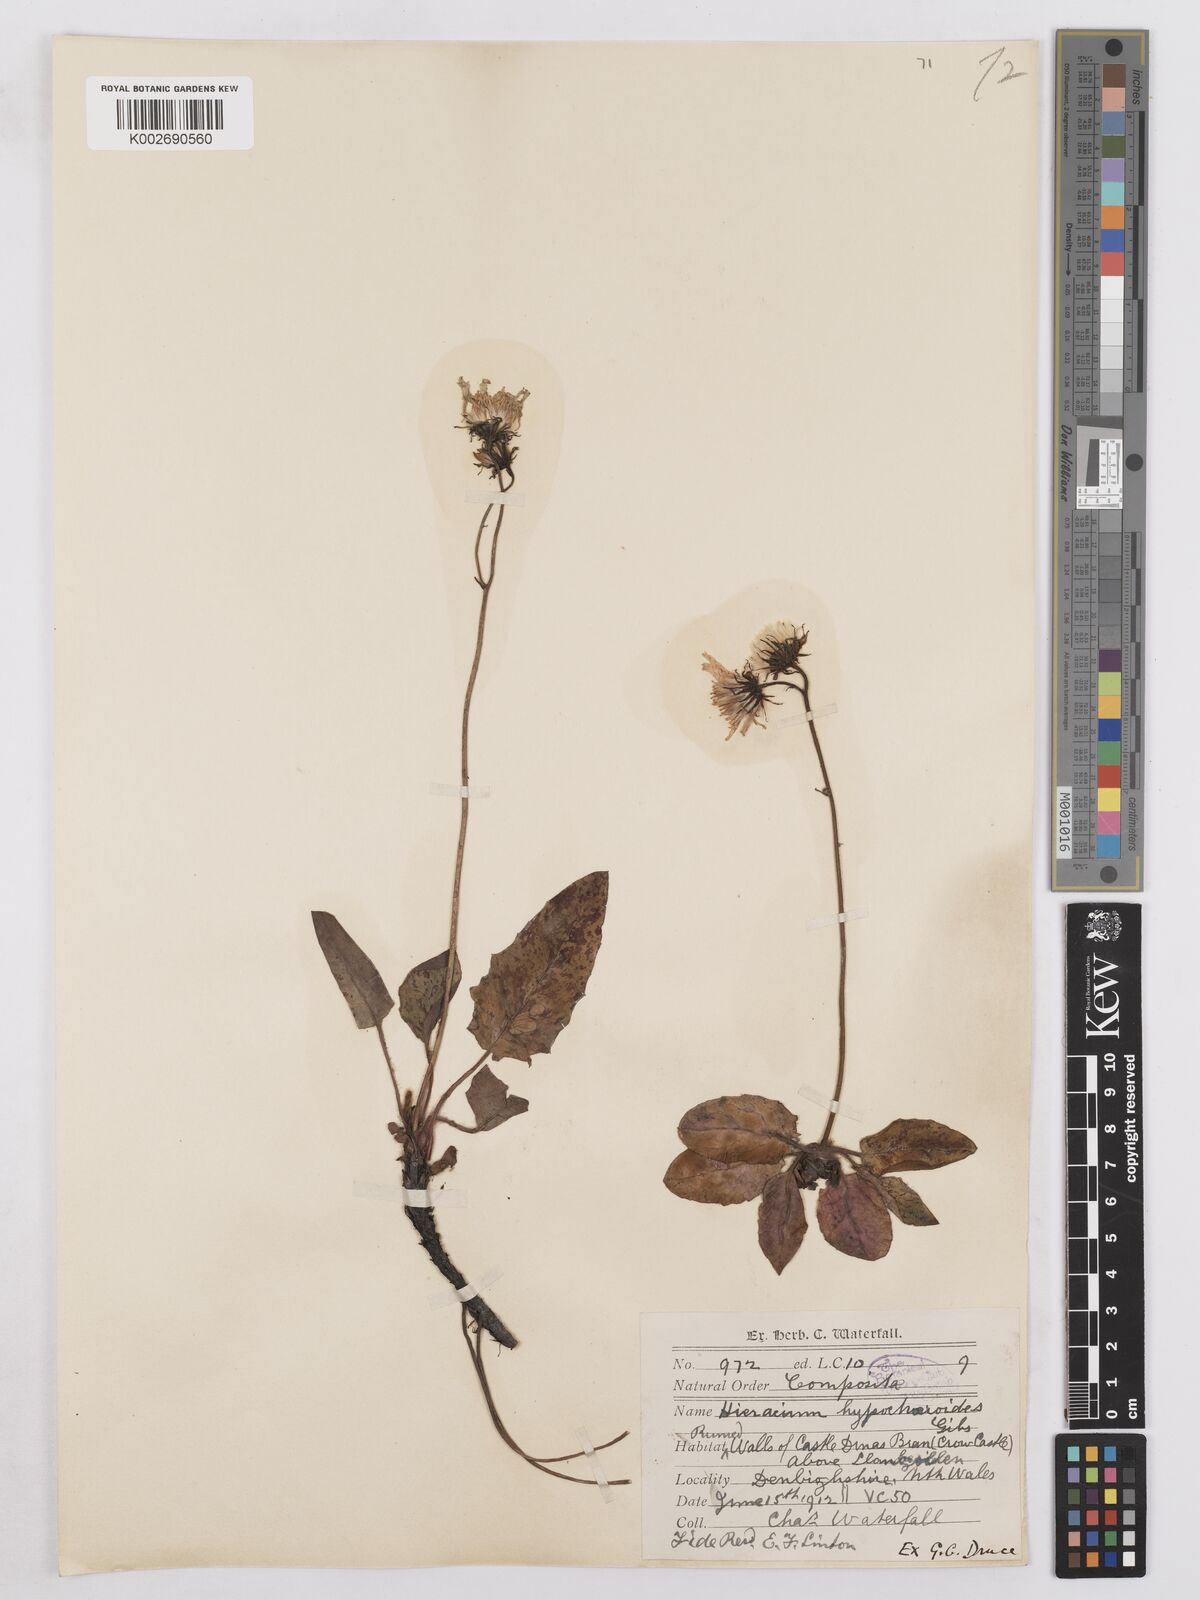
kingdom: Plantae
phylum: Tracheophyta
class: Magnoliopsida
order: Asterales
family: Asteraceae
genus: Hieracium
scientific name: Hieracium hypochoeroides
